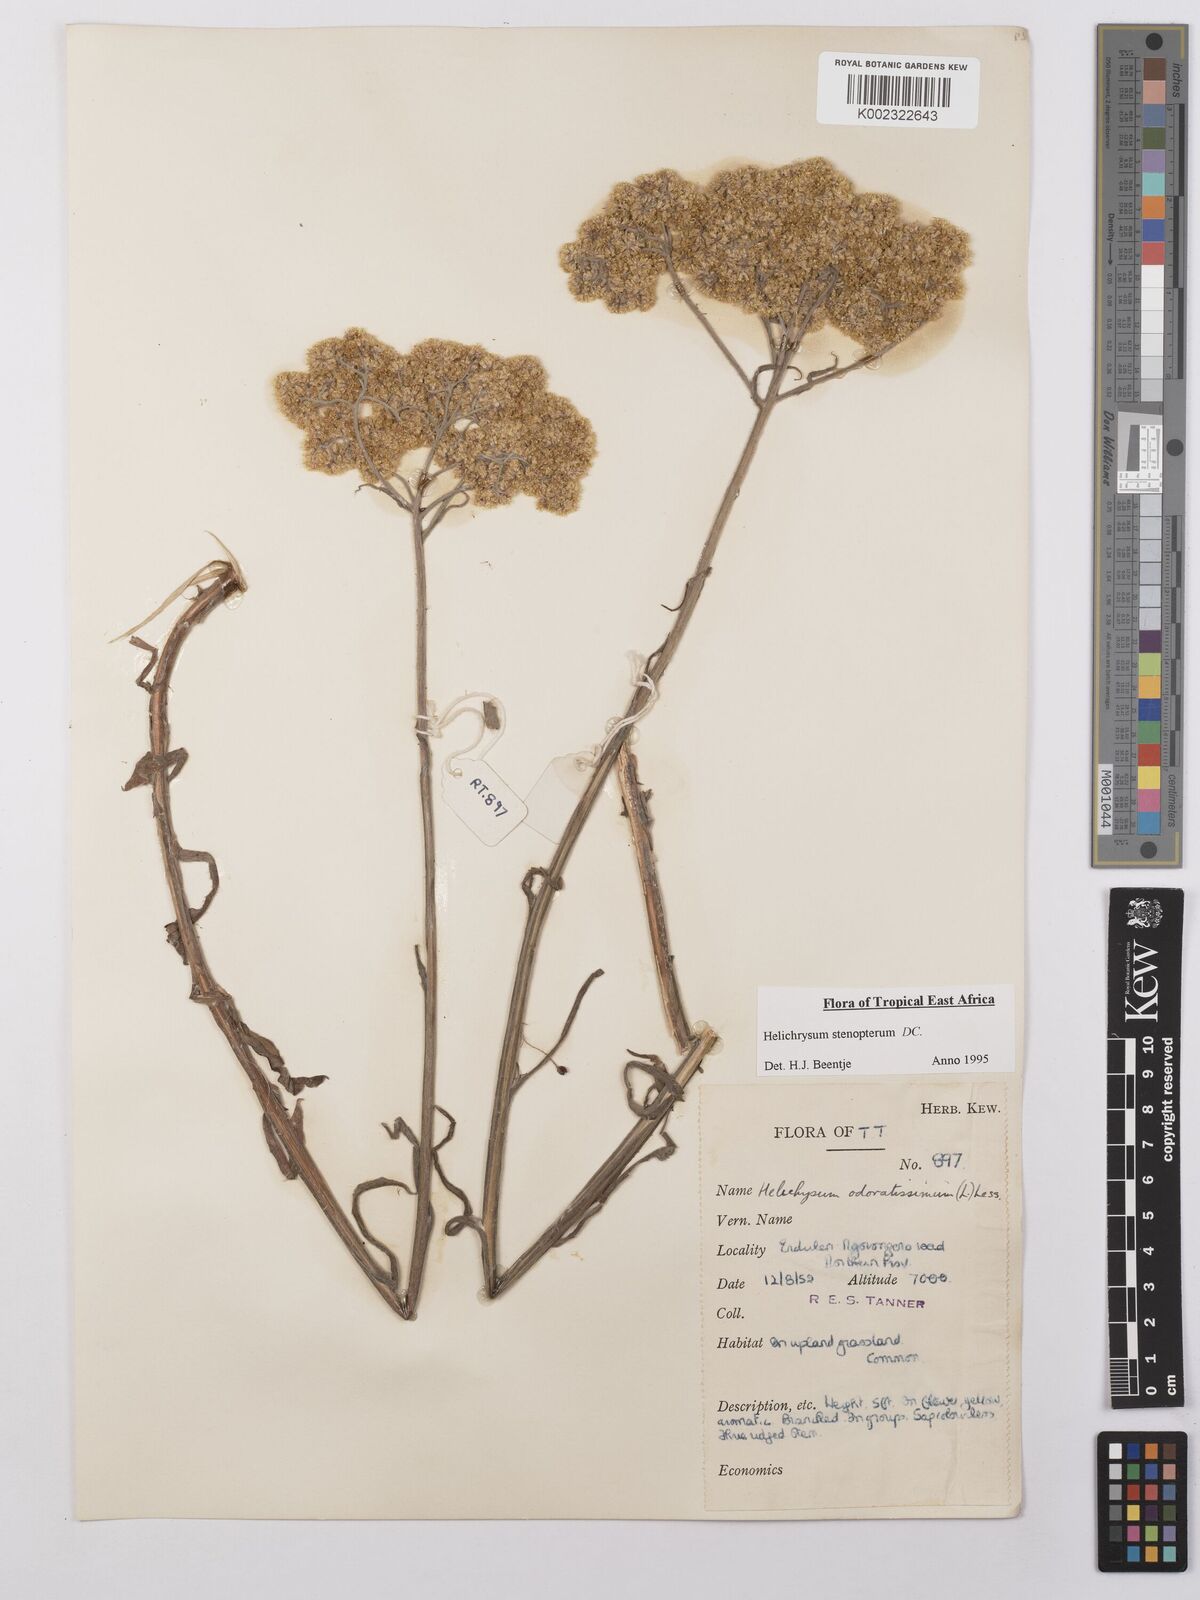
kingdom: Plantae
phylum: Tracheophyta
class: Magnoliopsida
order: Asterales
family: Asteraceae
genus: Helichrysum
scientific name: Helichrysum stenopterum
